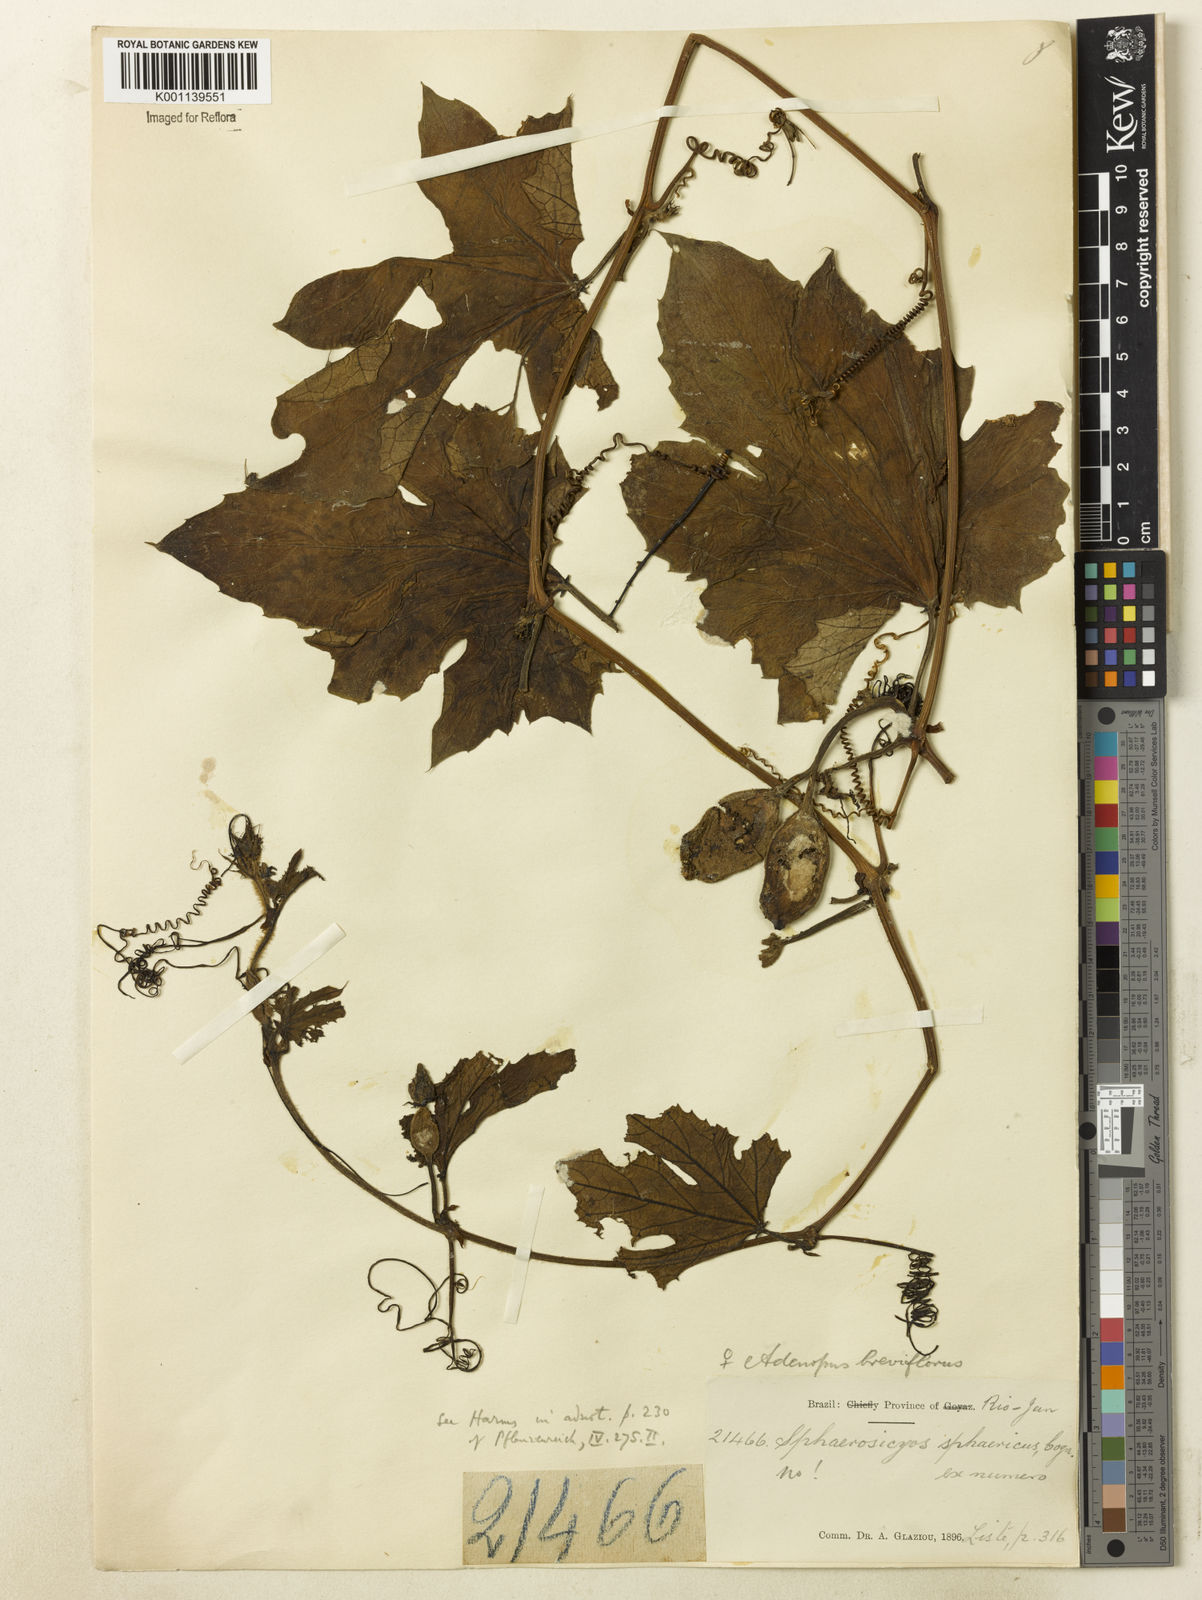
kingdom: Plantae
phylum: Tracheophyta
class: Magnoliopsida
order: Cucurbitales
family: Cucurbitaceae
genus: Lagenaria
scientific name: Lagenaria breviflora
